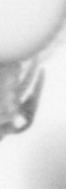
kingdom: Animalia
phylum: Arthropoda
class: Copepoda
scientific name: Copepoda
